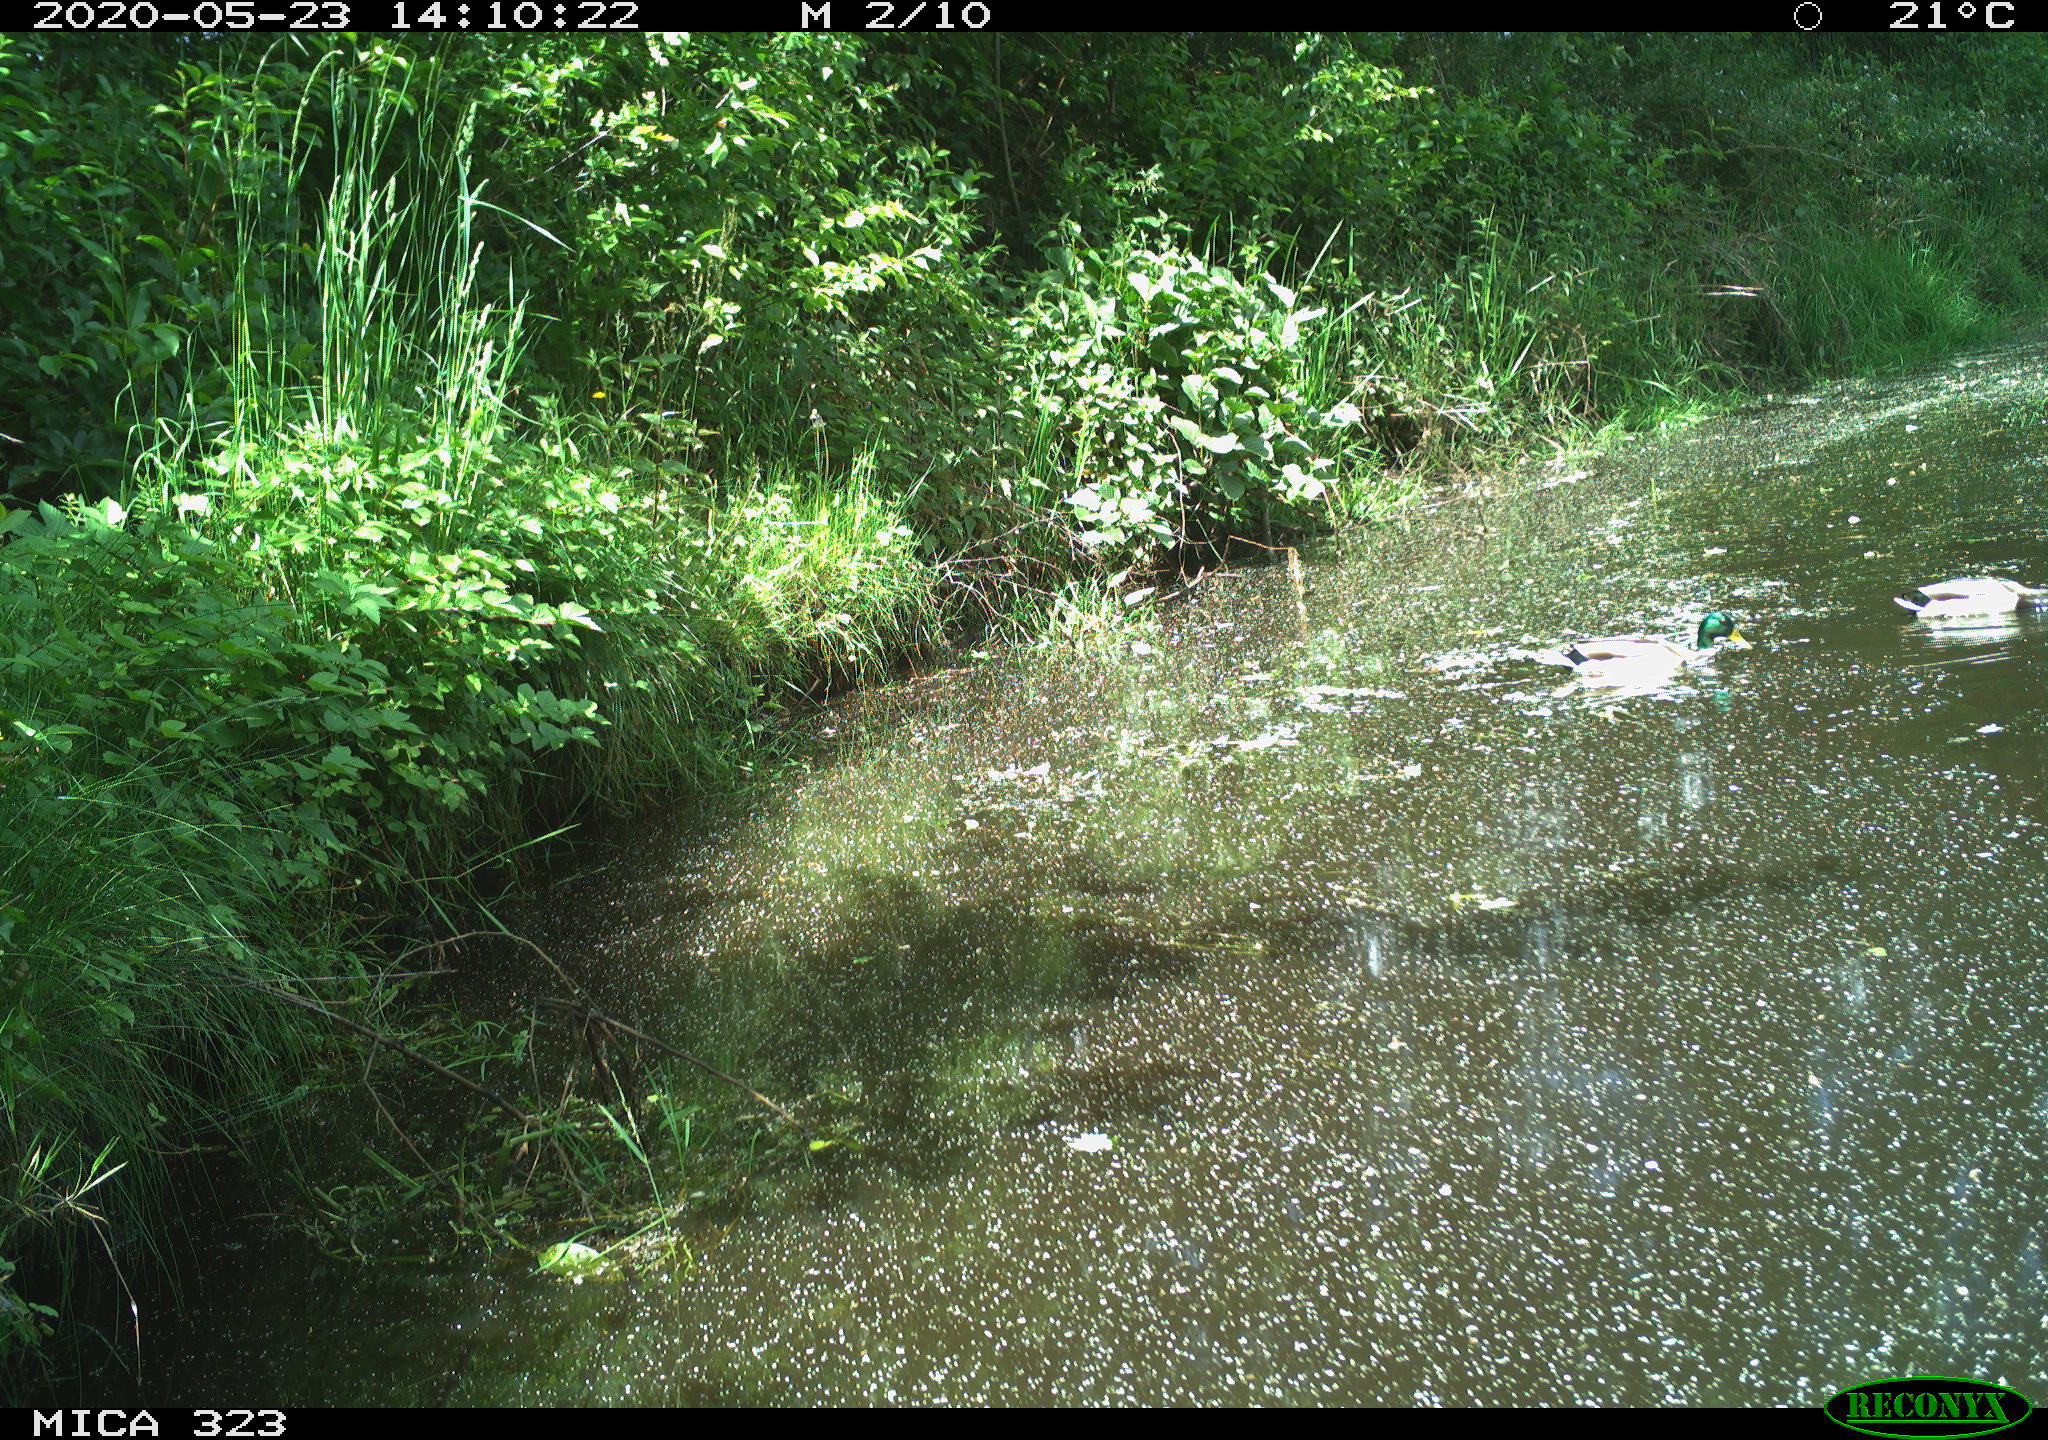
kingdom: Animalia
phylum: Chordata
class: Aves
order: Anseriformes
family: Anatidae
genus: Anas
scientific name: Anas platyrhynchos
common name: Mallard
